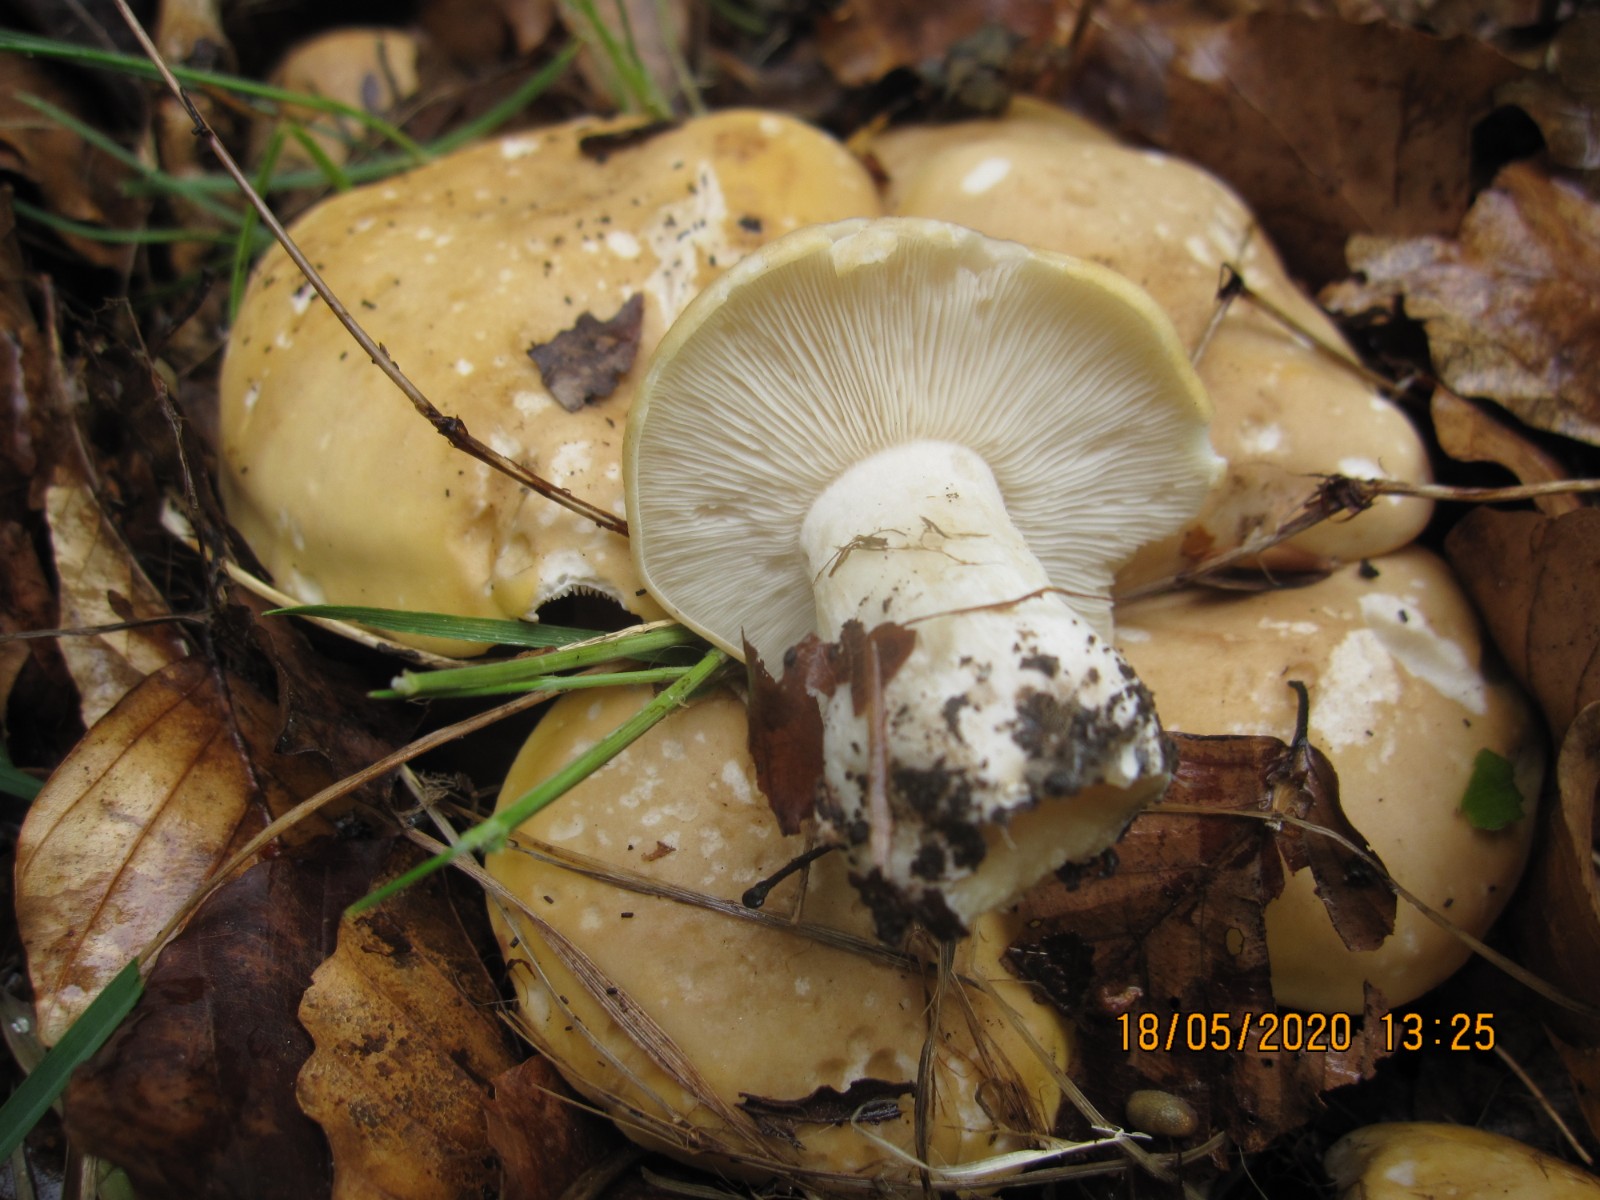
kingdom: Fungi
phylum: Basidiomycota
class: Agaricomycetes
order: Agaricales
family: Lyophyllaceae
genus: Calocybe
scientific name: Calocybe gambosa
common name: vårmusseron
